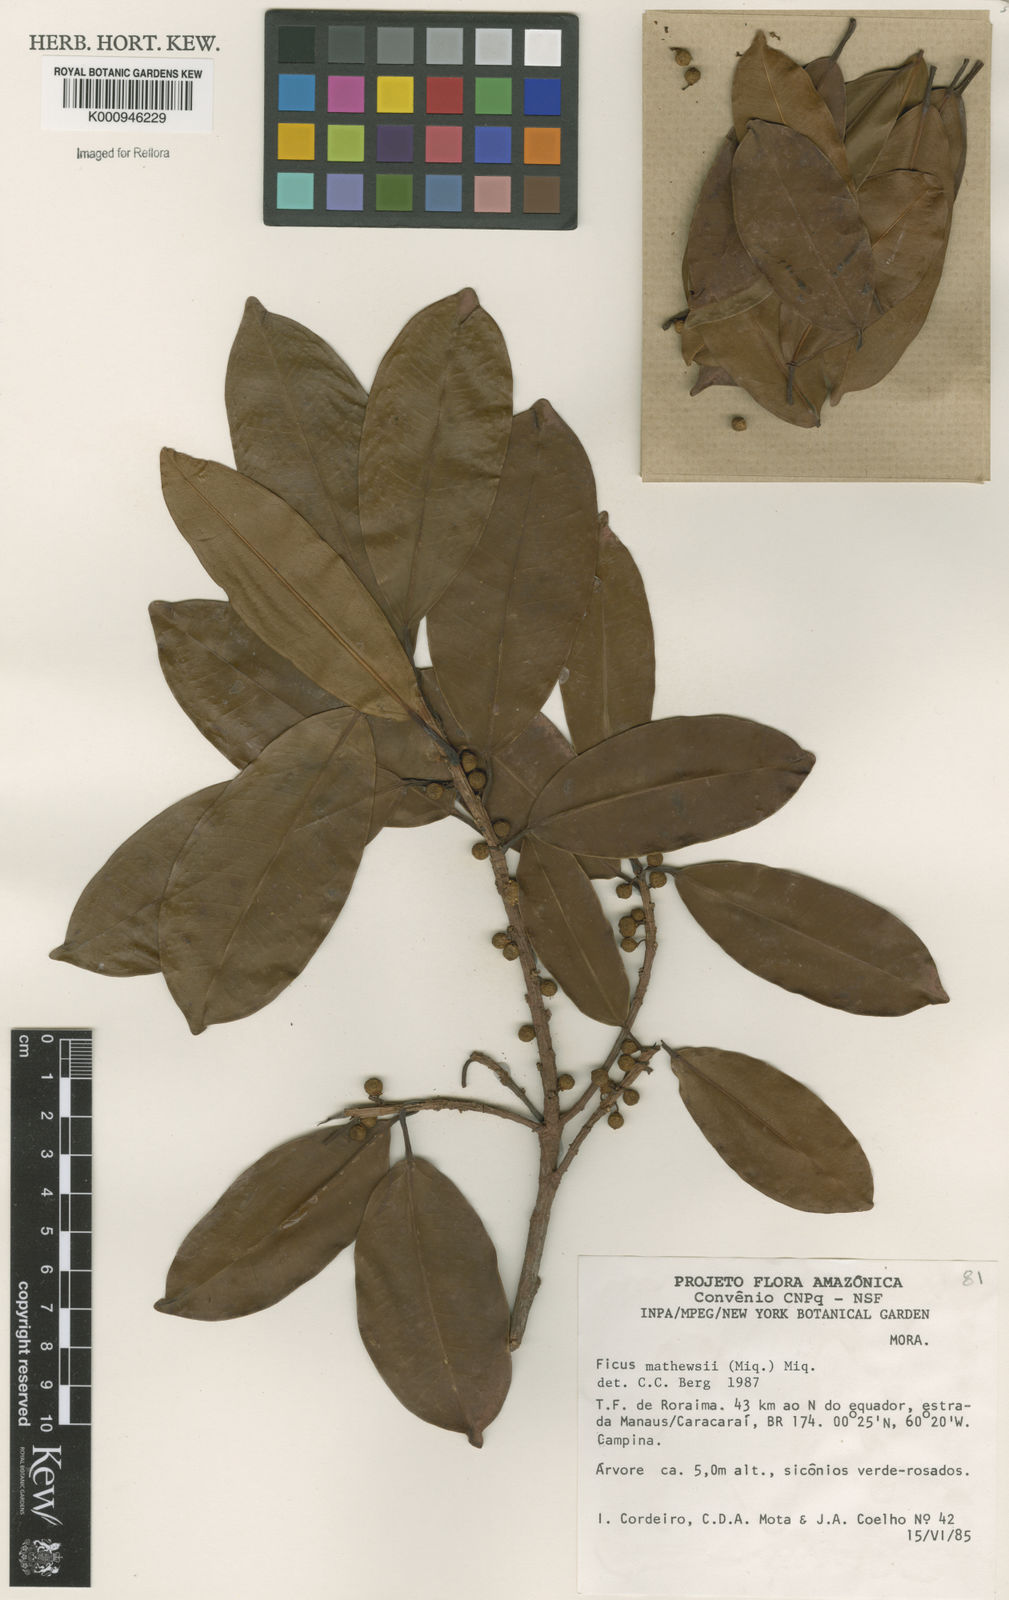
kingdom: Plantae
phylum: Tracheophyta
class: Magnoliopsida
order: Rosales
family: Moraceae
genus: Ficus
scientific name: Ficus mathewsii
